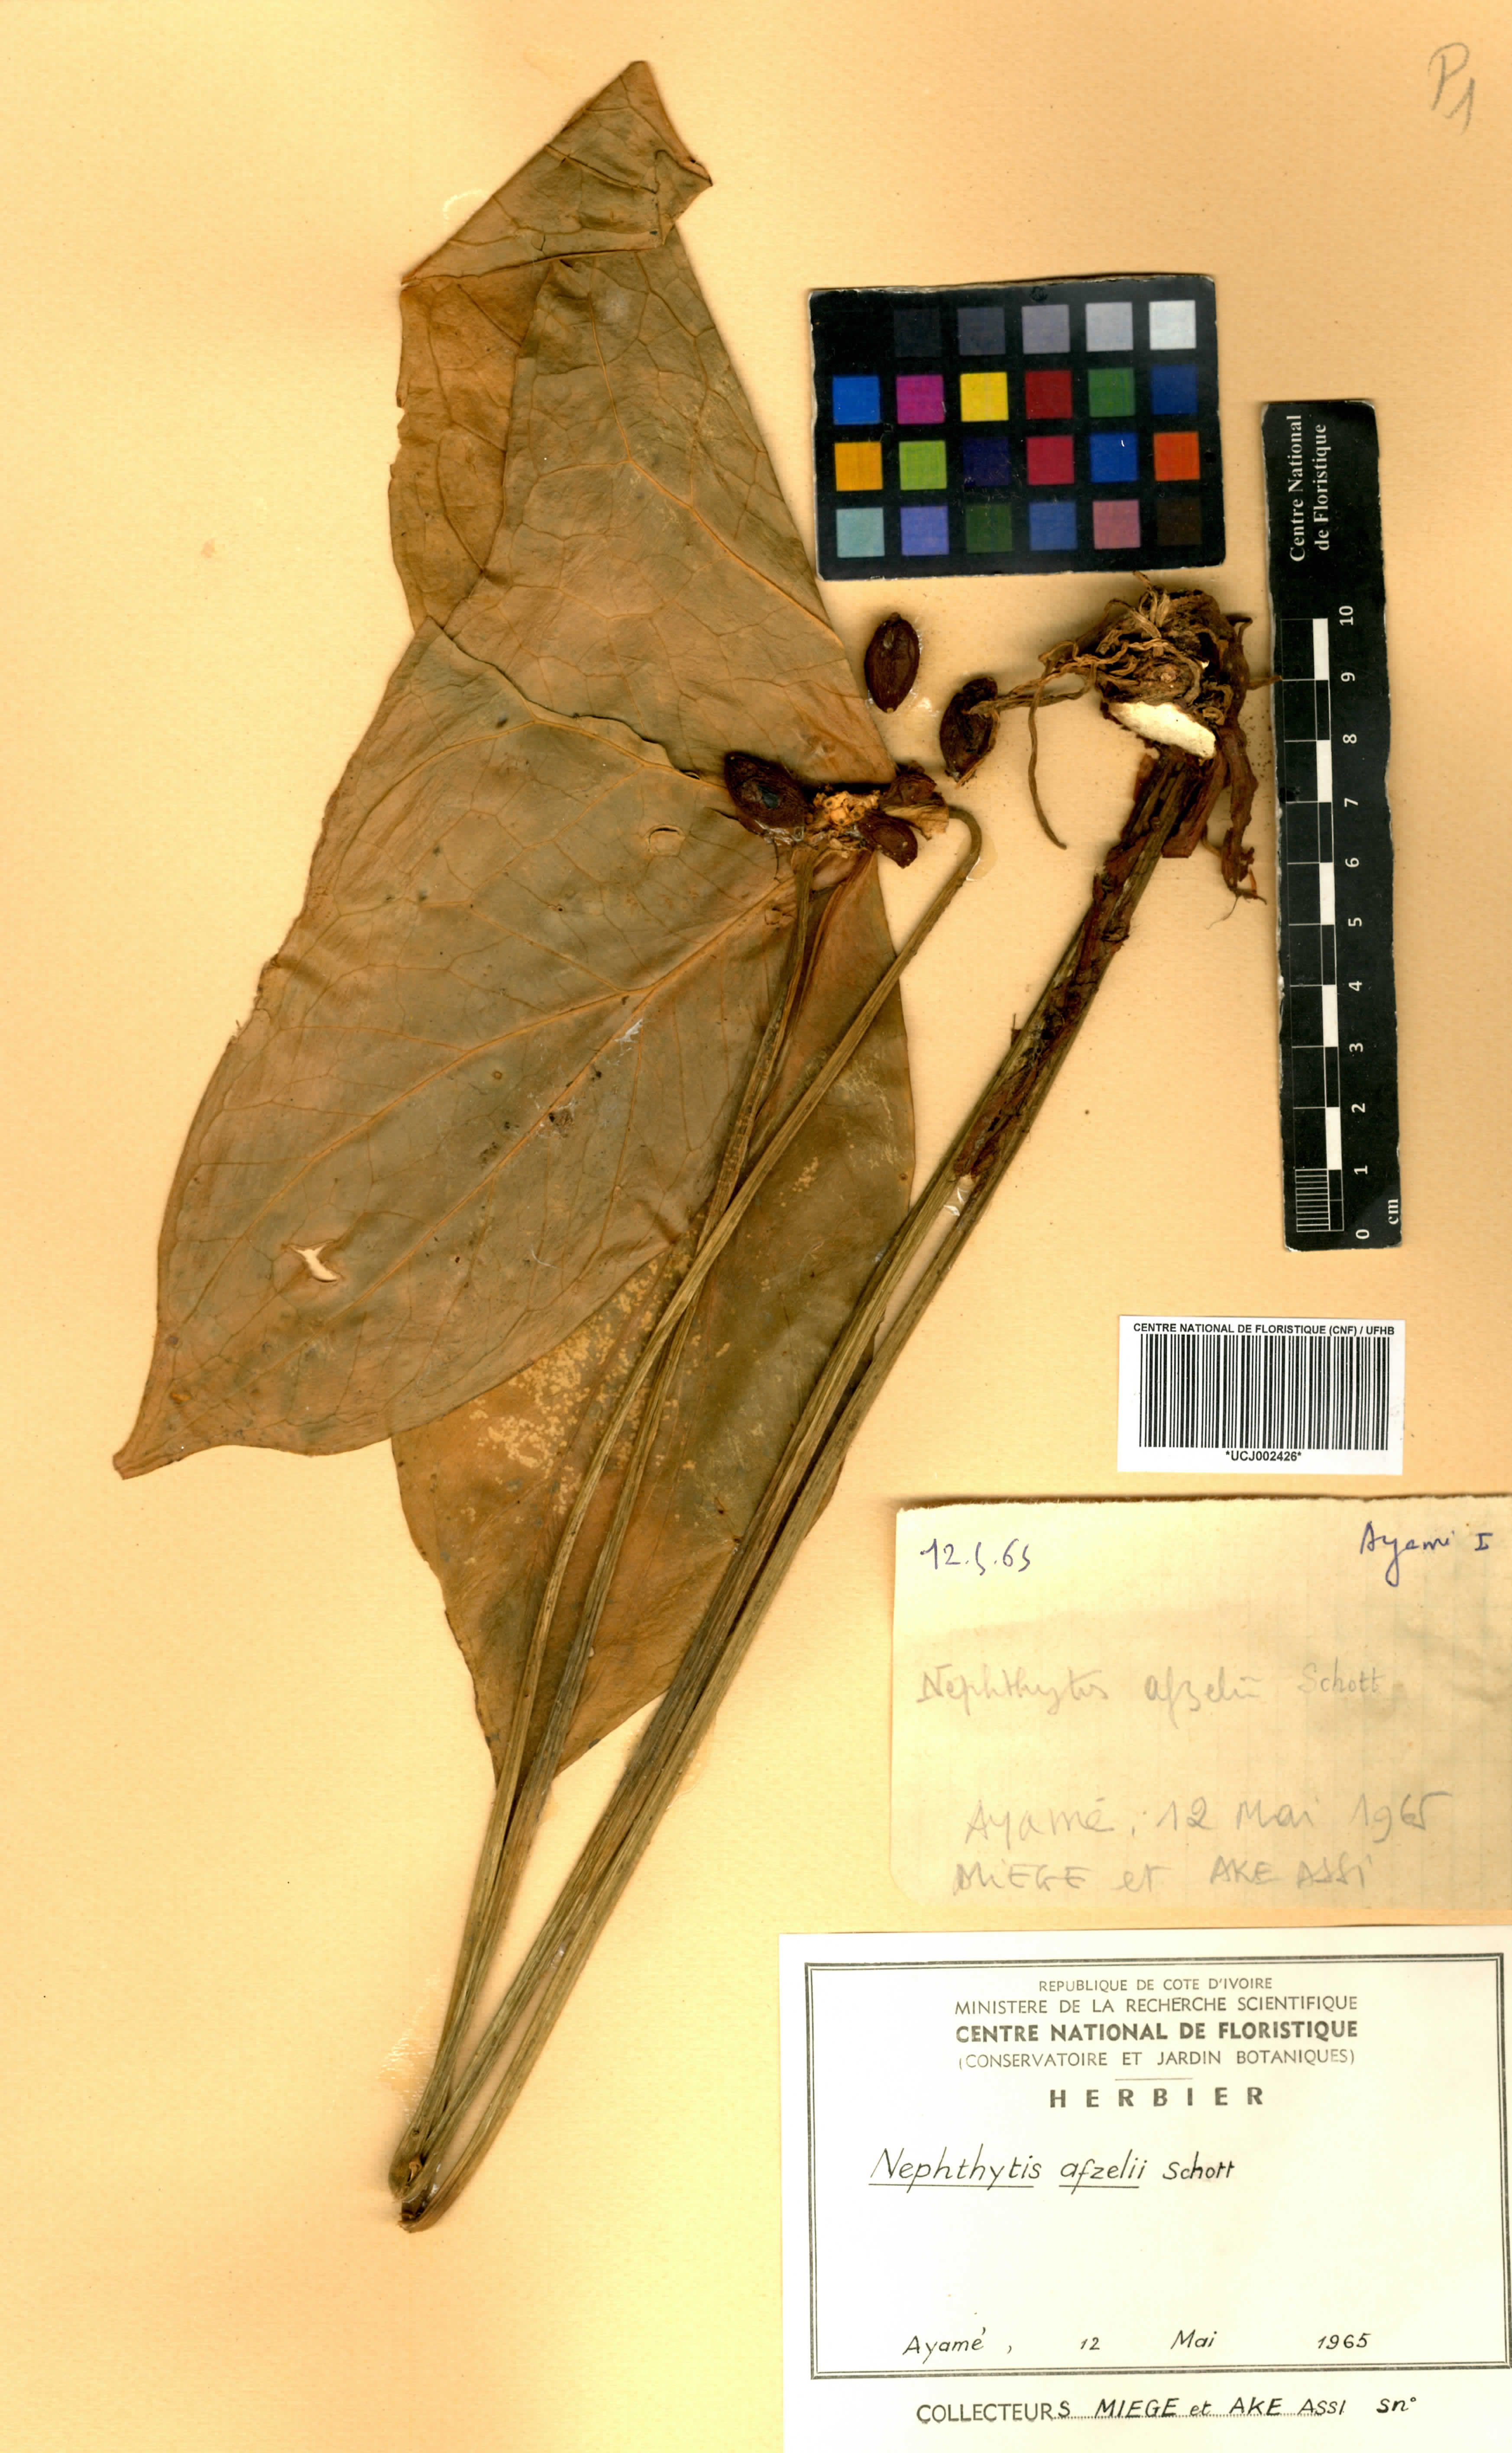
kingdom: Plantae
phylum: Tracheophyta
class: Liliopsida
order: Alismatales
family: Araceae
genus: Nephthytis
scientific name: Nephthytis afzelii
